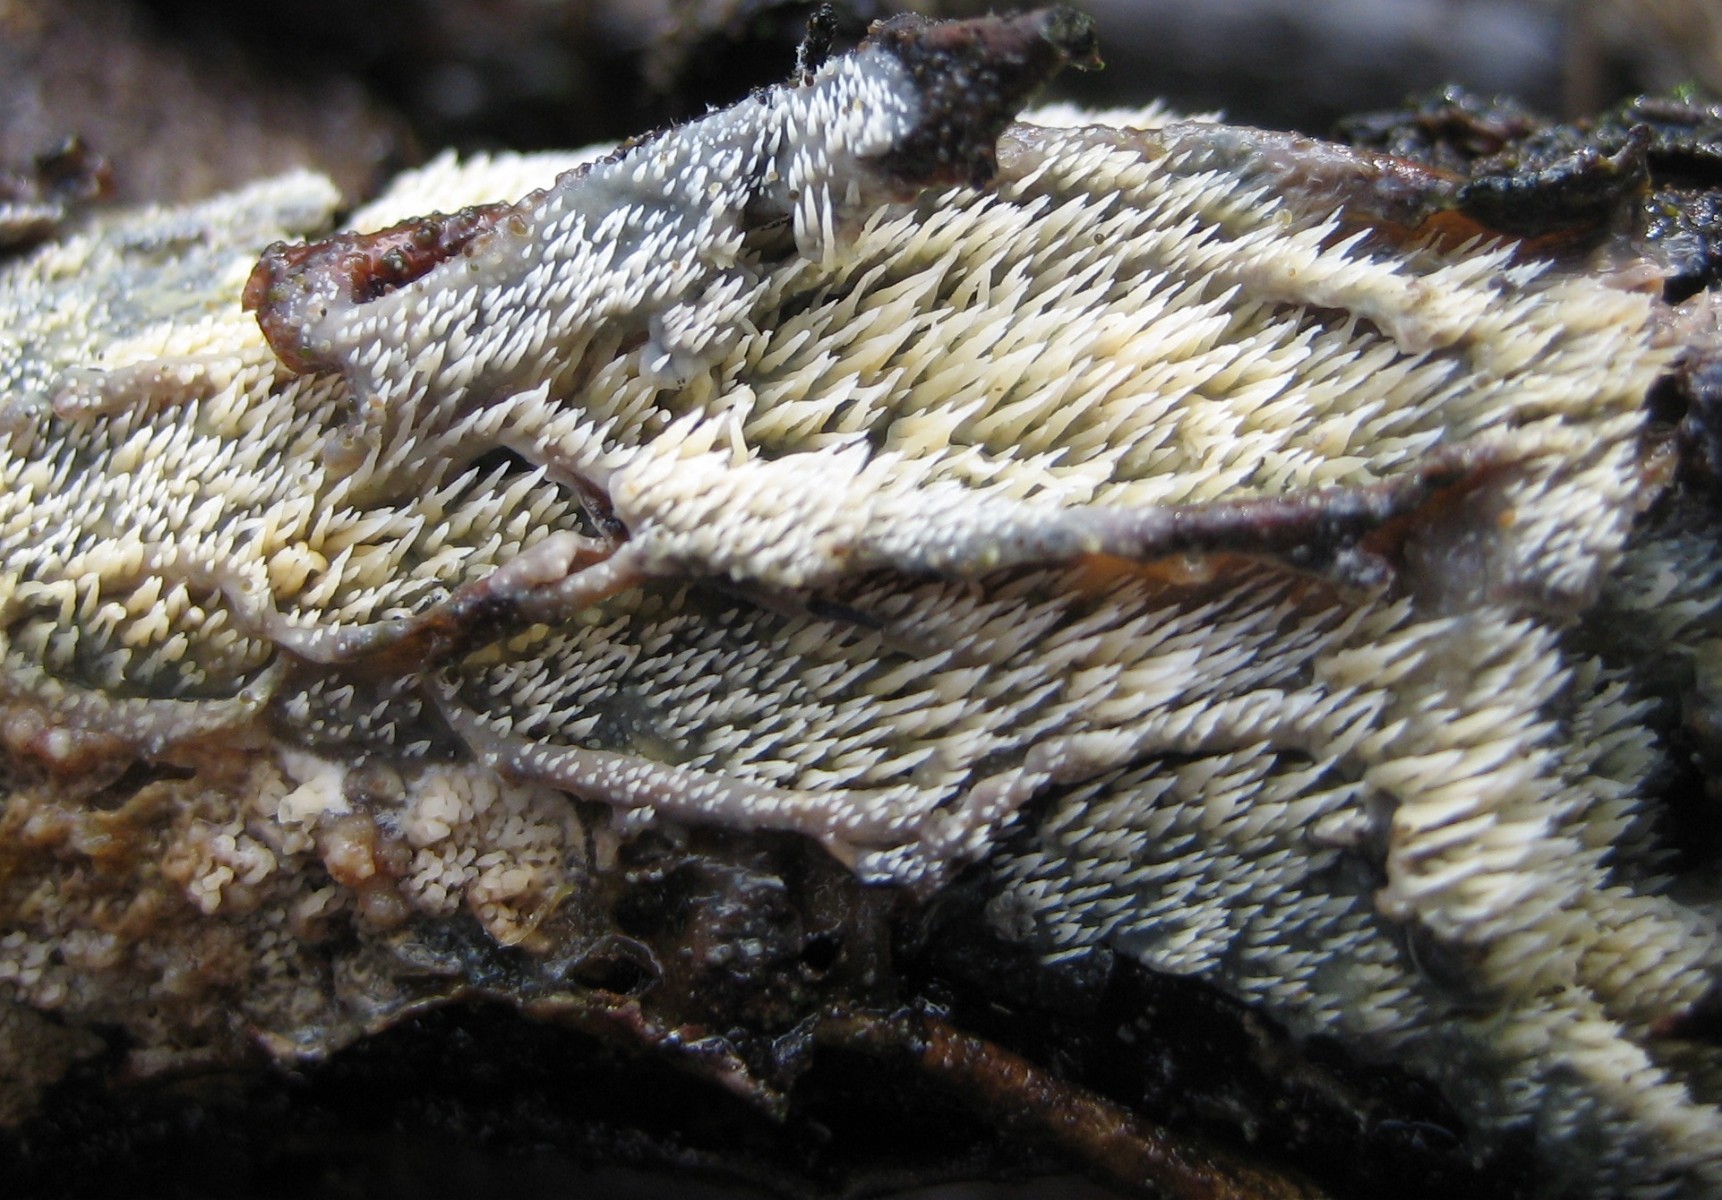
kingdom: Fungi
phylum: Basidiomycota
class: Agaricomycetes
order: Polyporales
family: Meruliaceae
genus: Mycoacia
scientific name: Mycoacia uda
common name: citrongul vokspig
